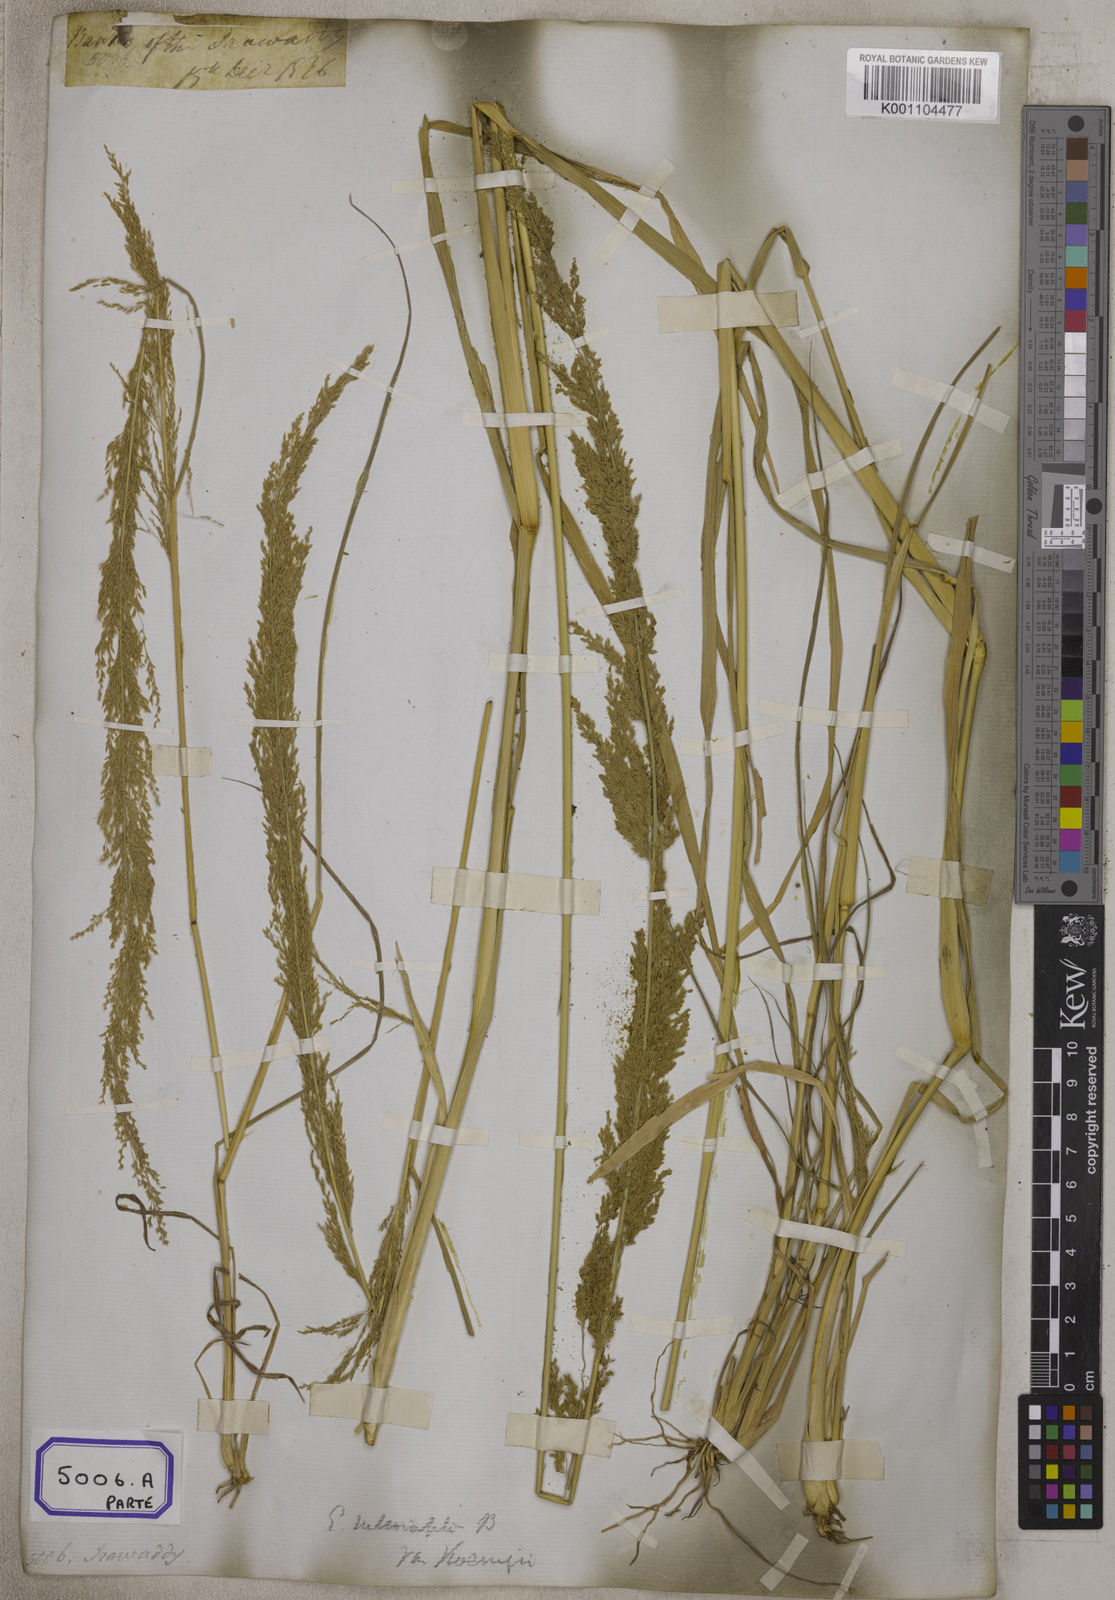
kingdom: Plantae
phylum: Tracheophyta
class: Liliopsida
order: Poales
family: Poaceae
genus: Eragrostis
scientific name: Eragrostis
